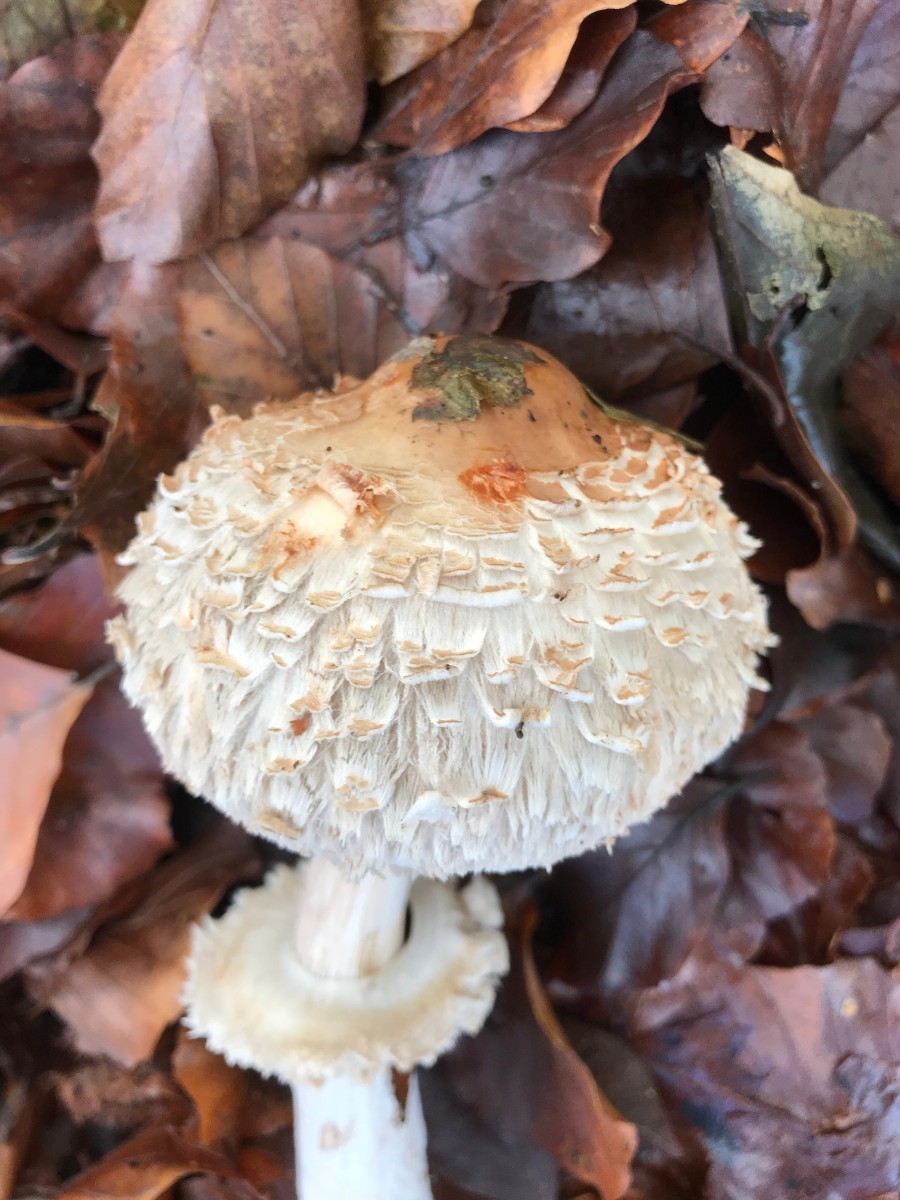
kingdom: Fungi
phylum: Basidiomycota
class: Agaricomycetes
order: Agaricales
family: Agaricaceae
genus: Chlorophyllum
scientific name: Chlorophyllum olivieri
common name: almindelig rabarberhat
